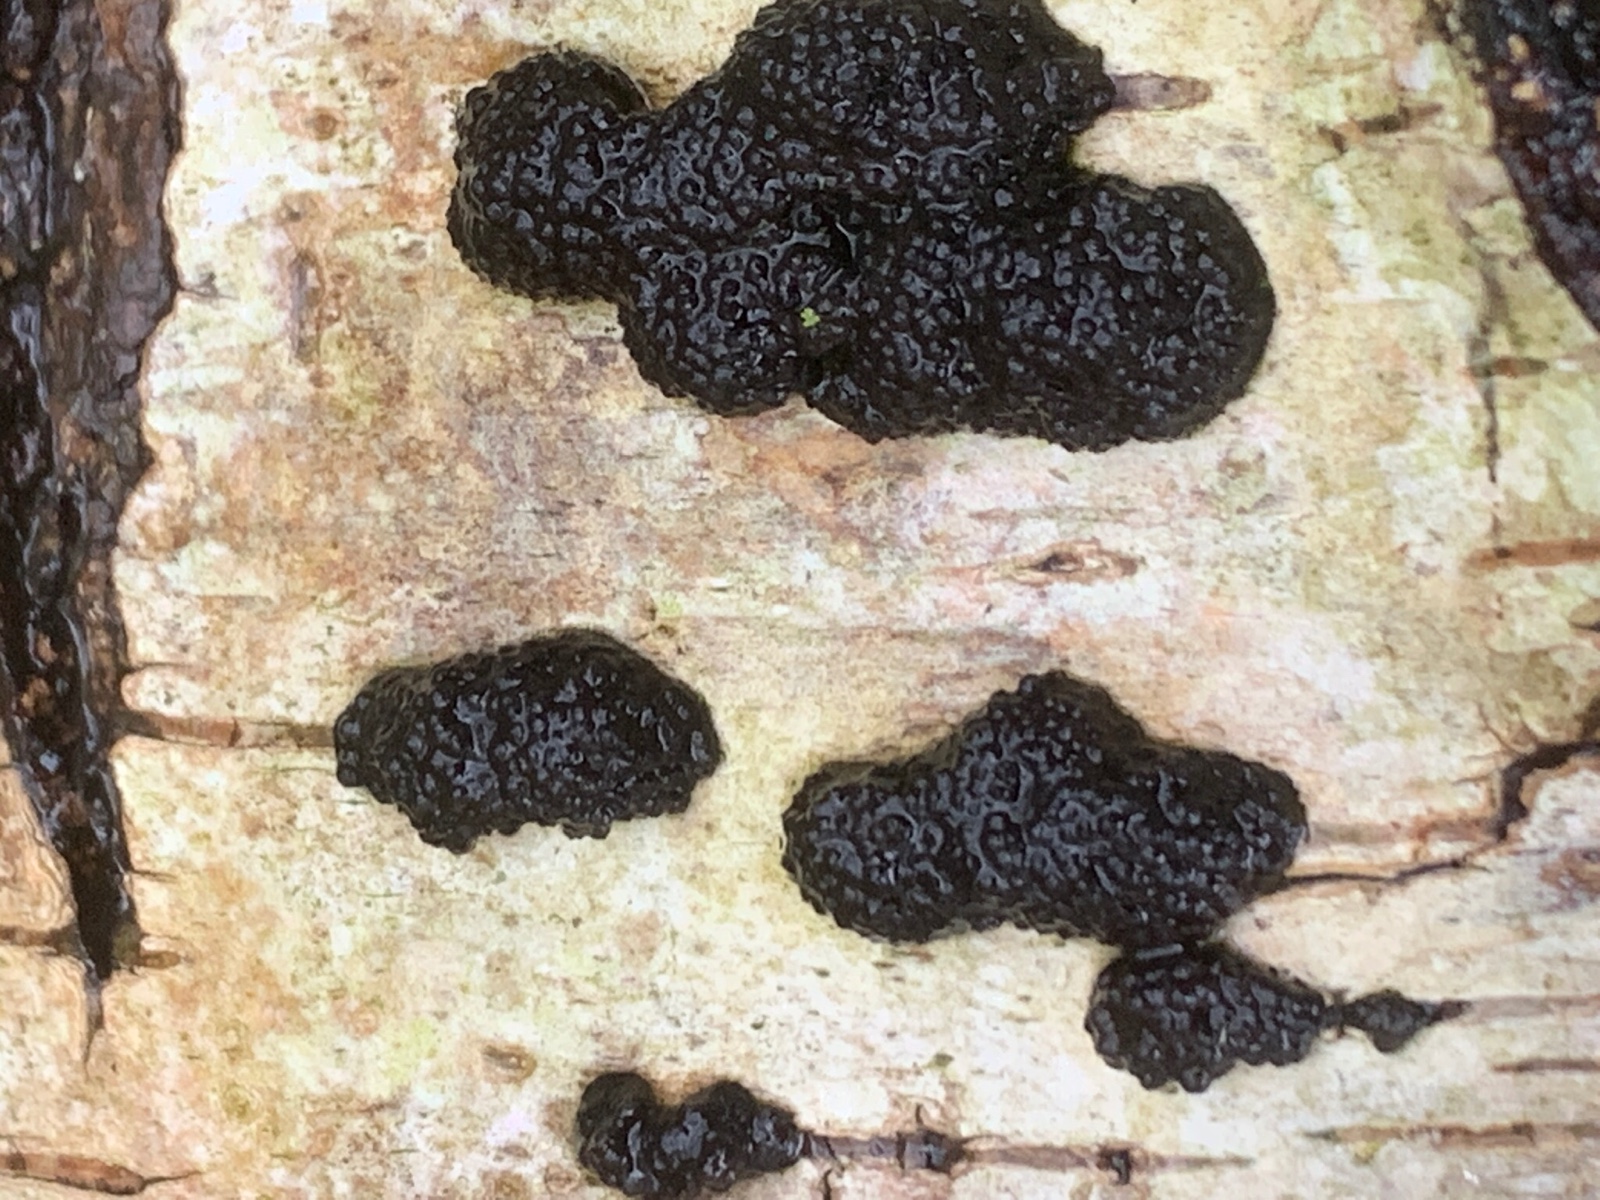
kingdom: Fungi
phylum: Ascomycota
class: Sordariomycetes
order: Xylariales
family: Hypoxylaceae
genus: Jackrogersella
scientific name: Jackrogersella multiformis
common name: foranderlig kulbær
